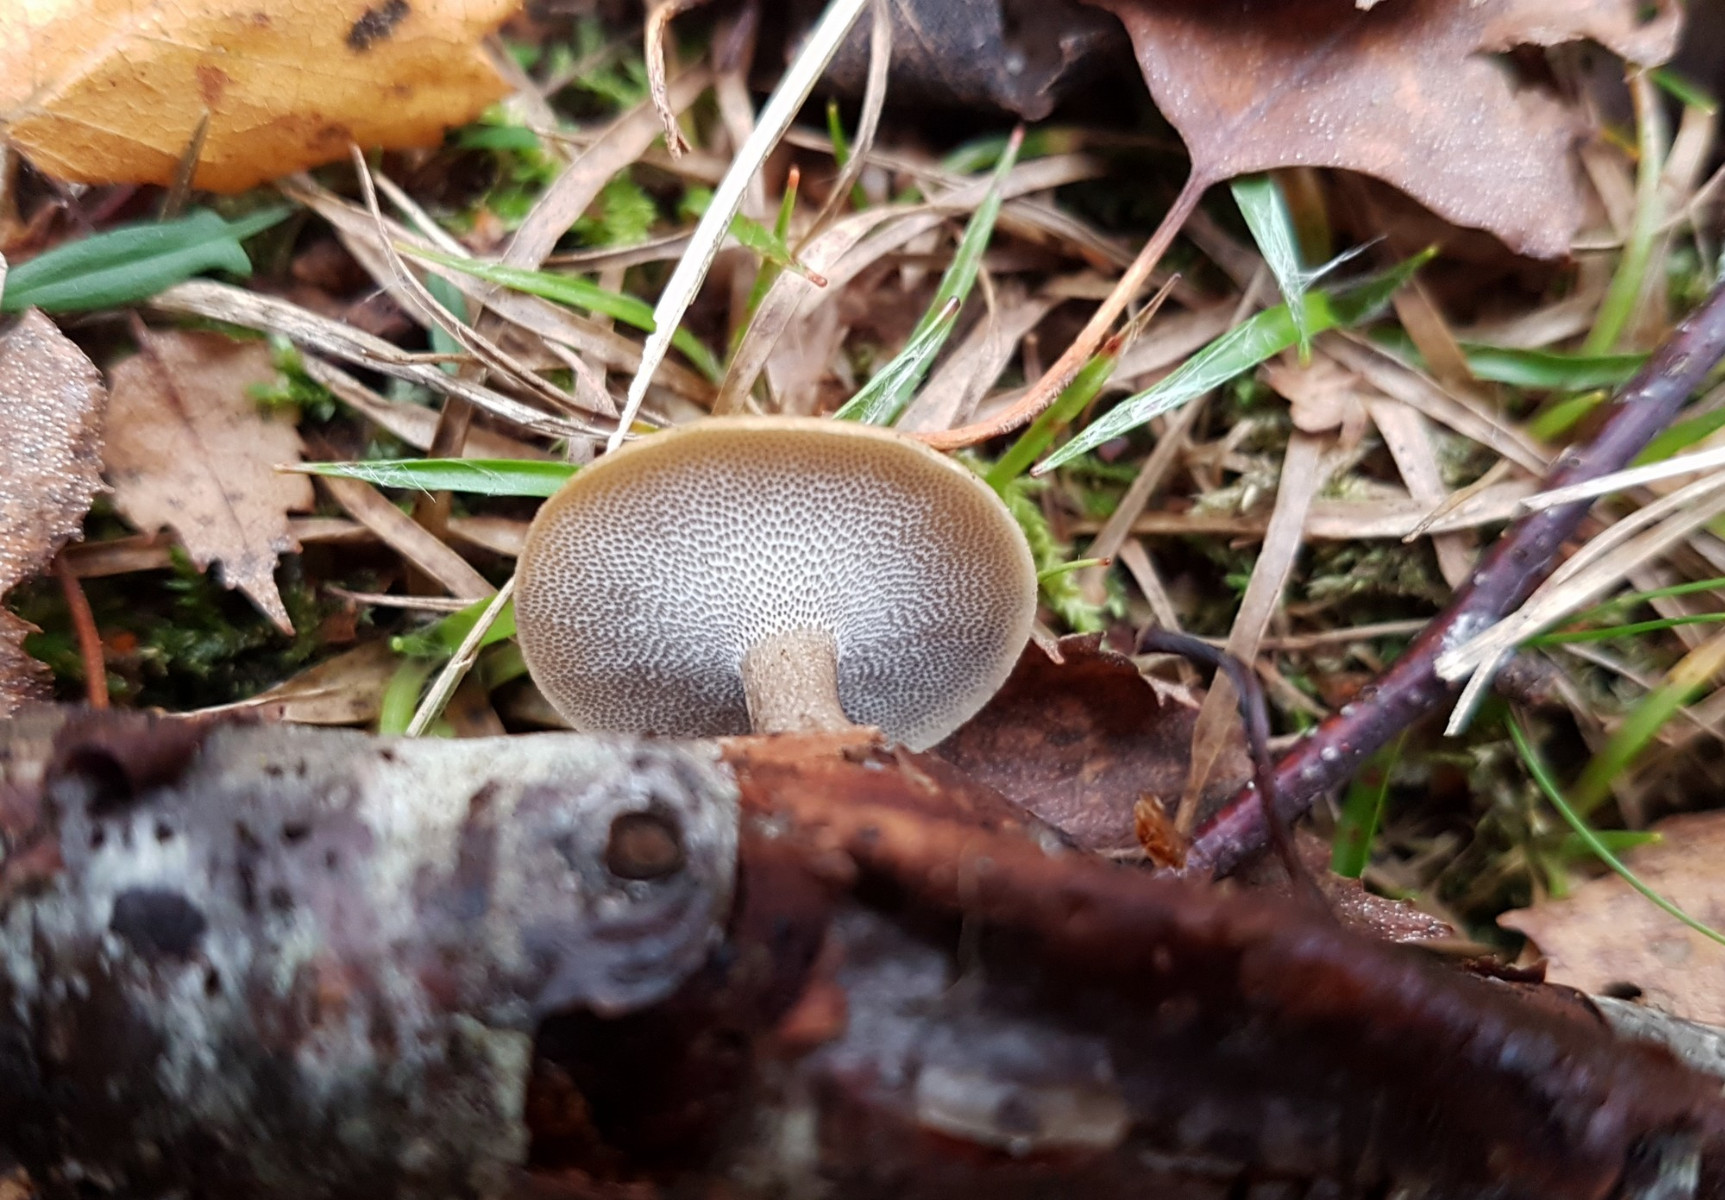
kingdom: Fungi
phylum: Basidiomycota
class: Agaricomycetes
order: Polyporales
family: Polyporaceae
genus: Lentinus
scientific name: Lentinus brumalis
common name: vinter-stilkporesvamp
